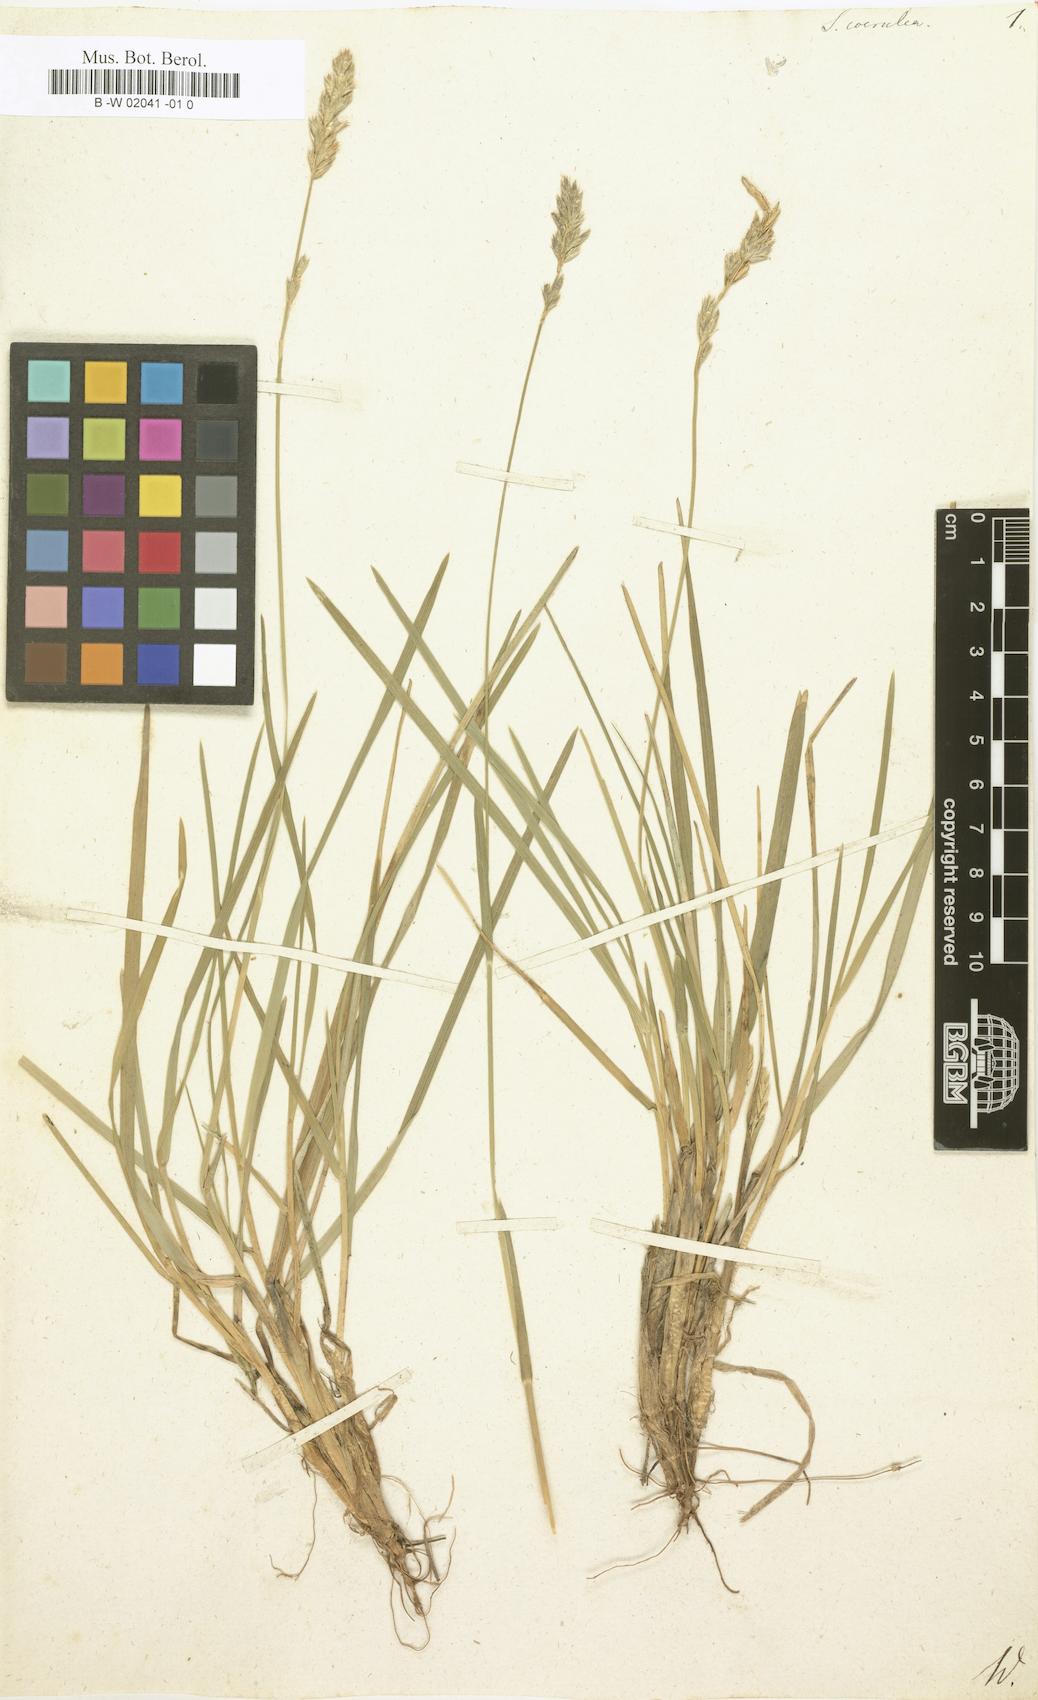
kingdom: Plantae
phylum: Tracheophyta
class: Liliopsida
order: Poales
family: Poaceae
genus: Sesleria
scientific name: Sesleria caerulea
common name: Blue moor-grass
